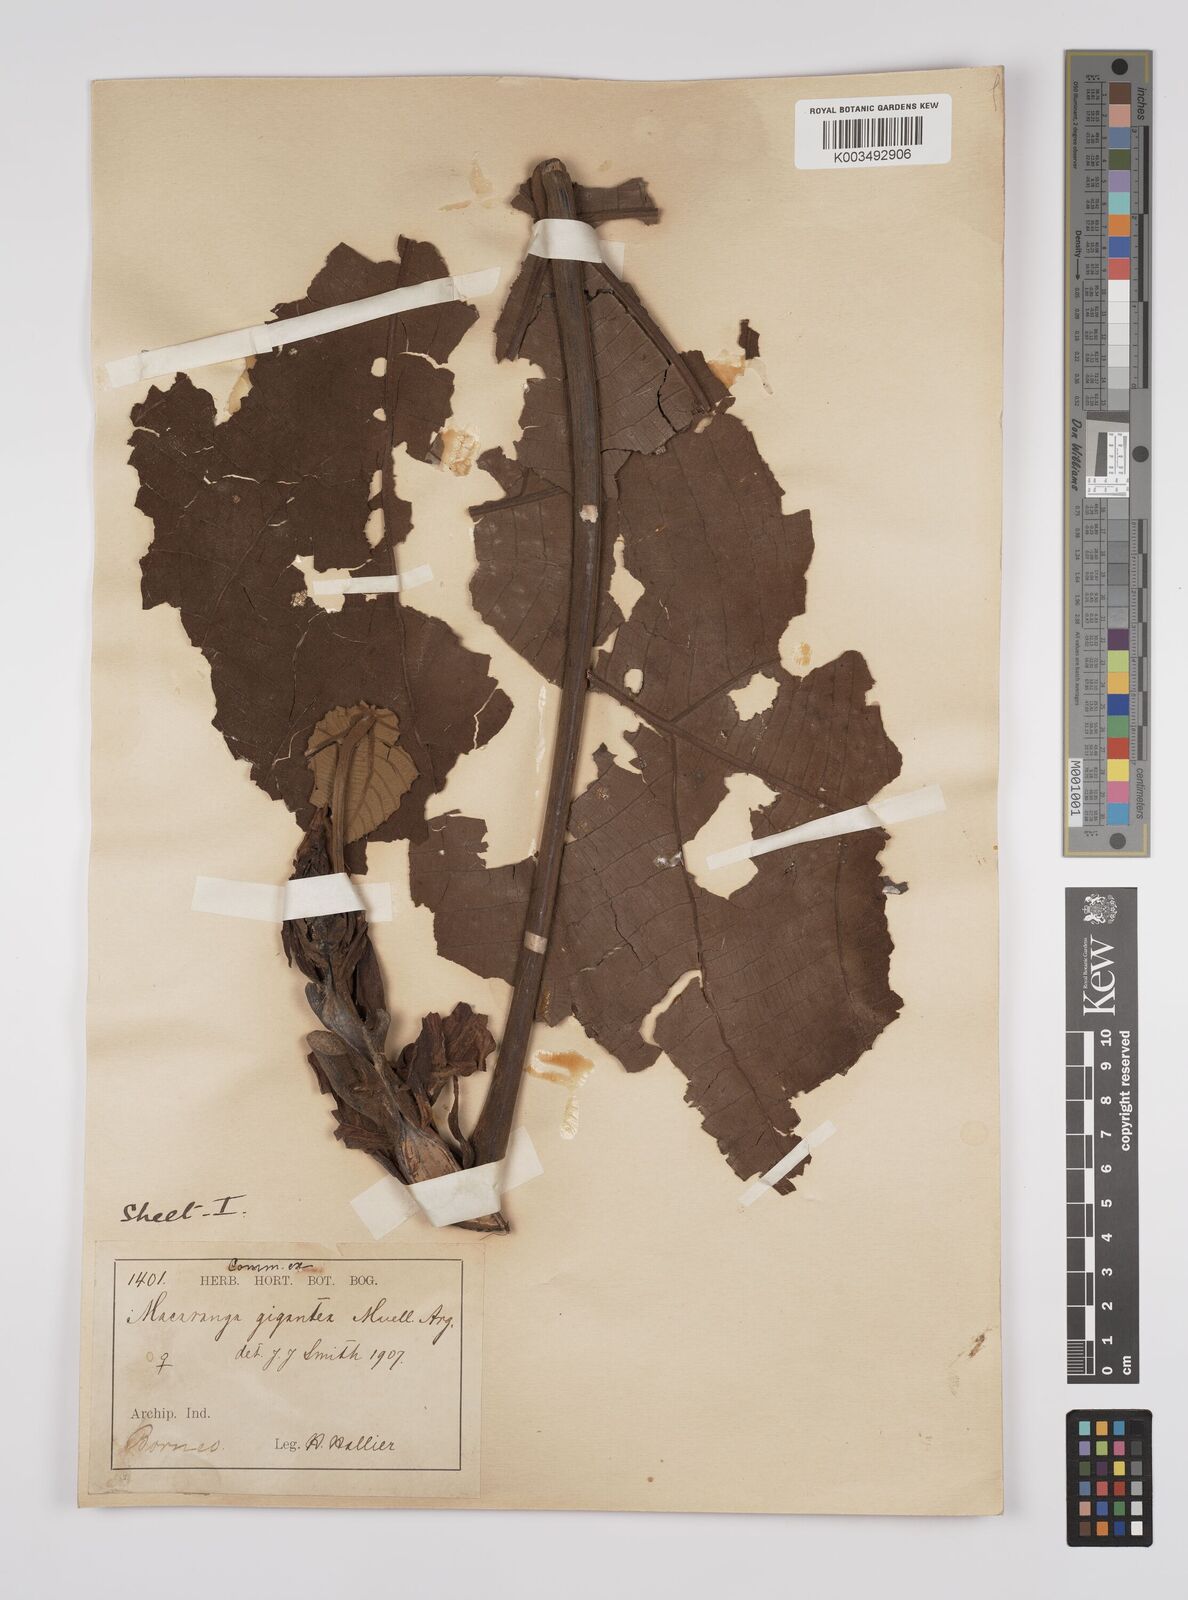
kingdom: Plantae
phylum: Tracheophyta
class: Magnoliopsida
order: Malpighiales
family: Euphorbiaceae
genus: Macaranga
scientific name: Macaranga gigantea
